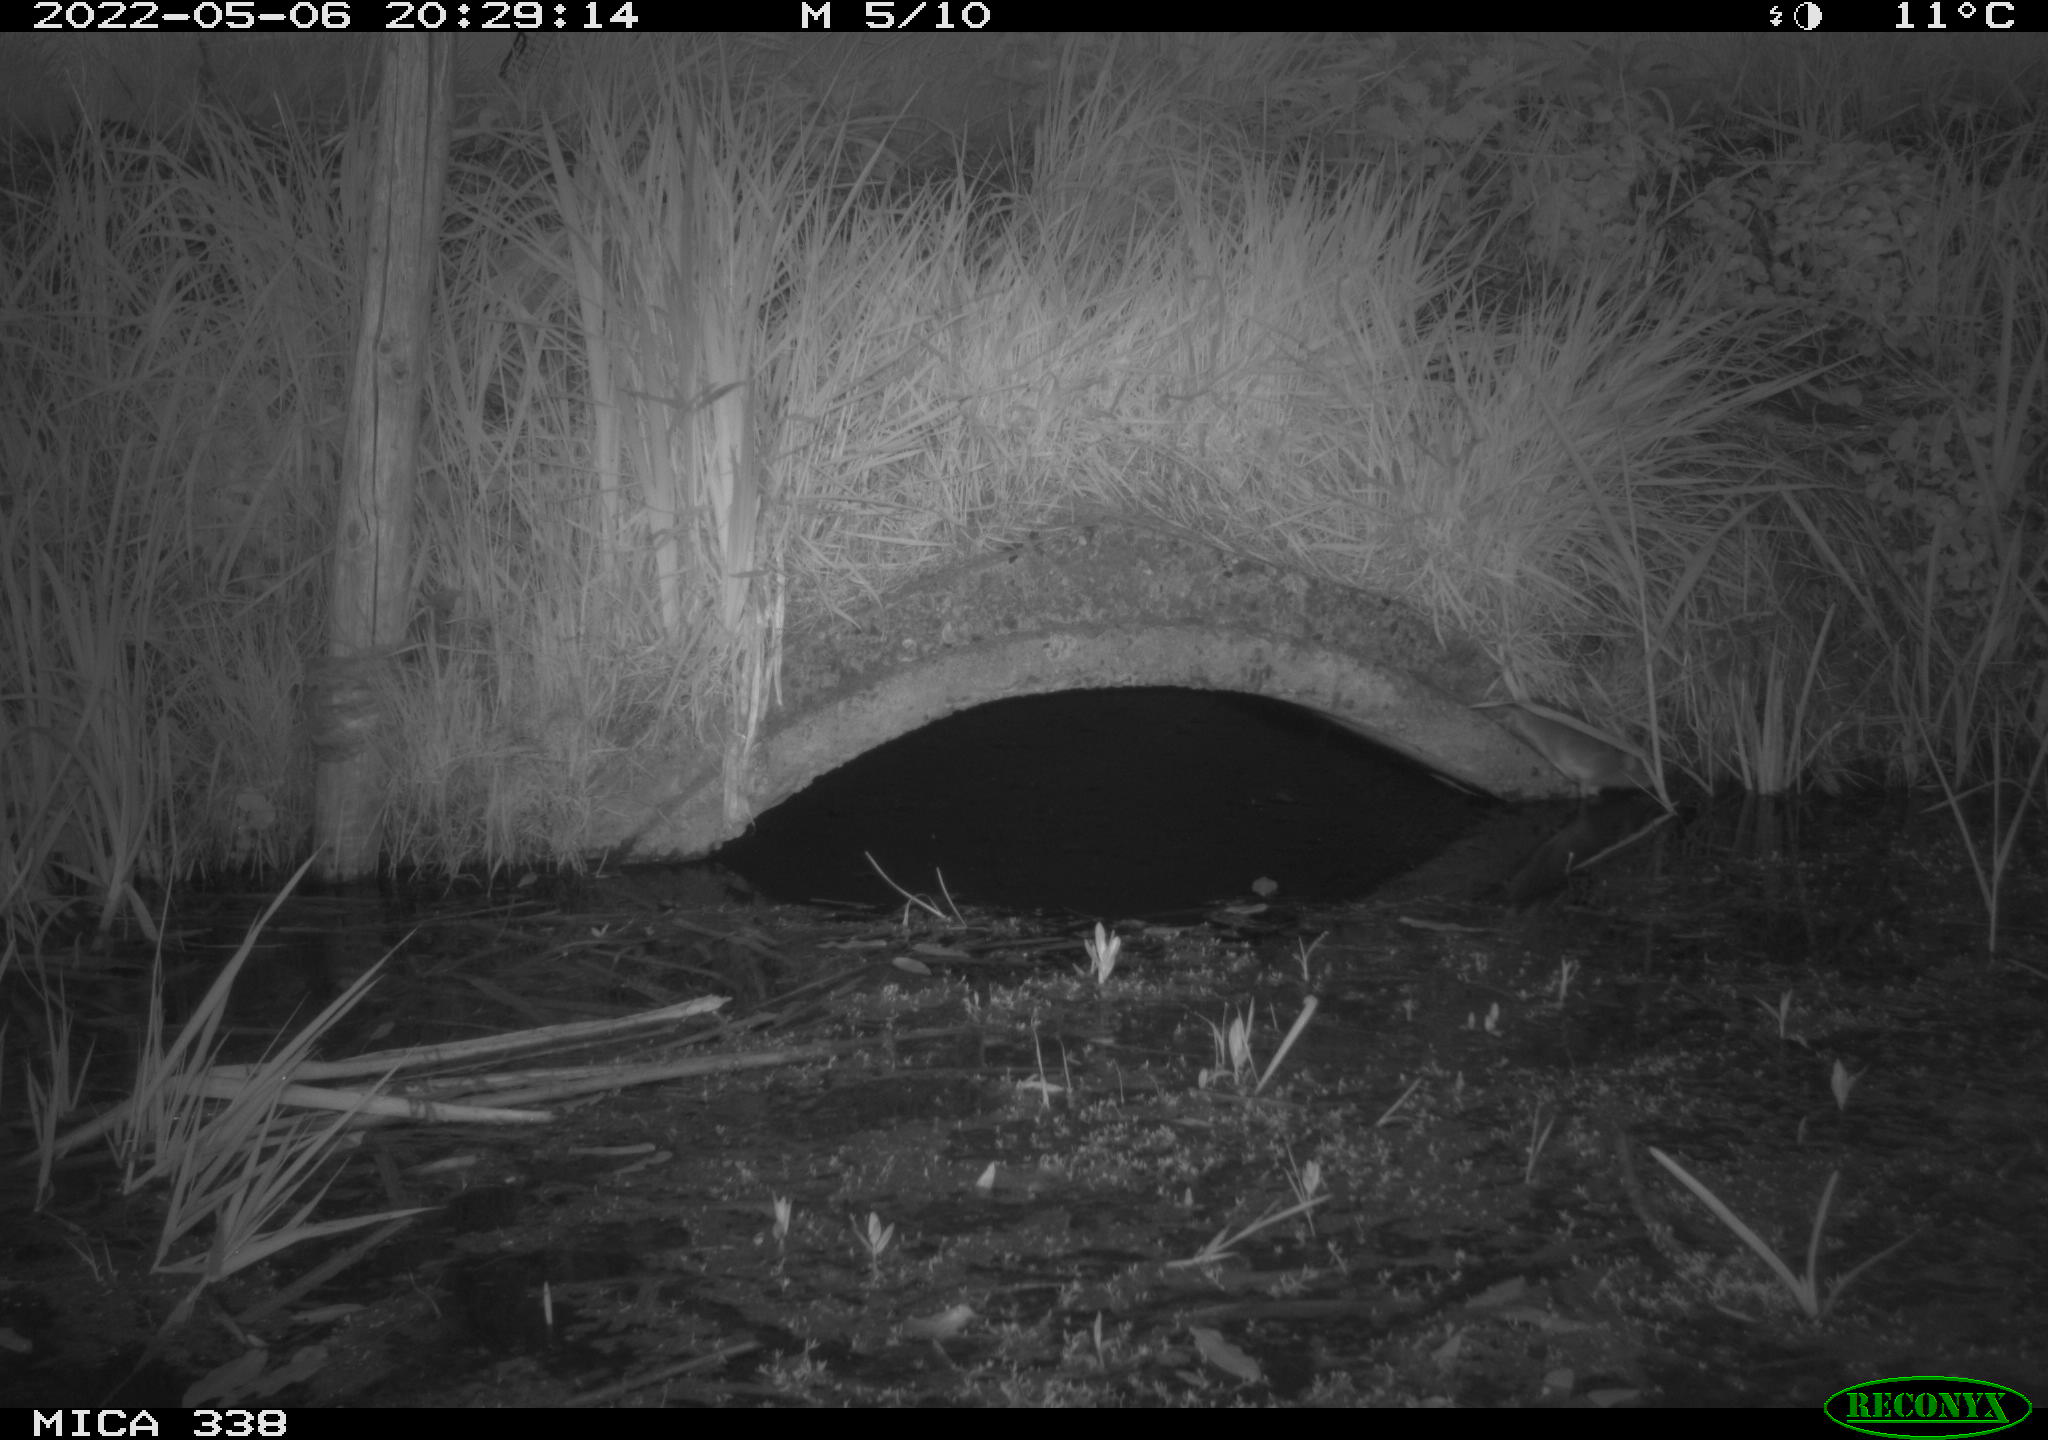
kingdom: Animalia
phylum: Chordata
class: Mammalia
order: Rodentia
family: Muridae
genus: Rattus
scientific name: Rattus norvegicus
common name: Brown rat
